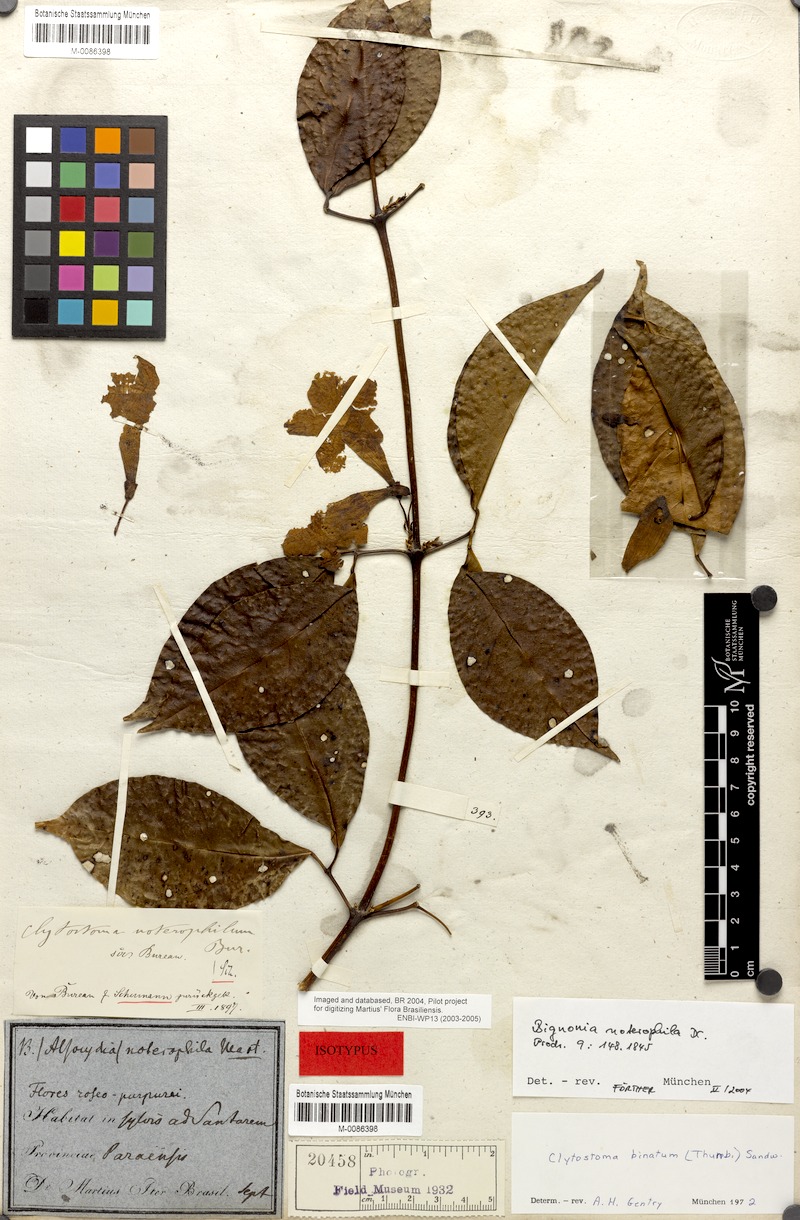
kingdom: Plantae
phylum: Tracheophyta
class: Magnoliopsida
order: Lamiales
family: Bignoniaceae
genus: Bignonia
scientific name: Bignonia binata
